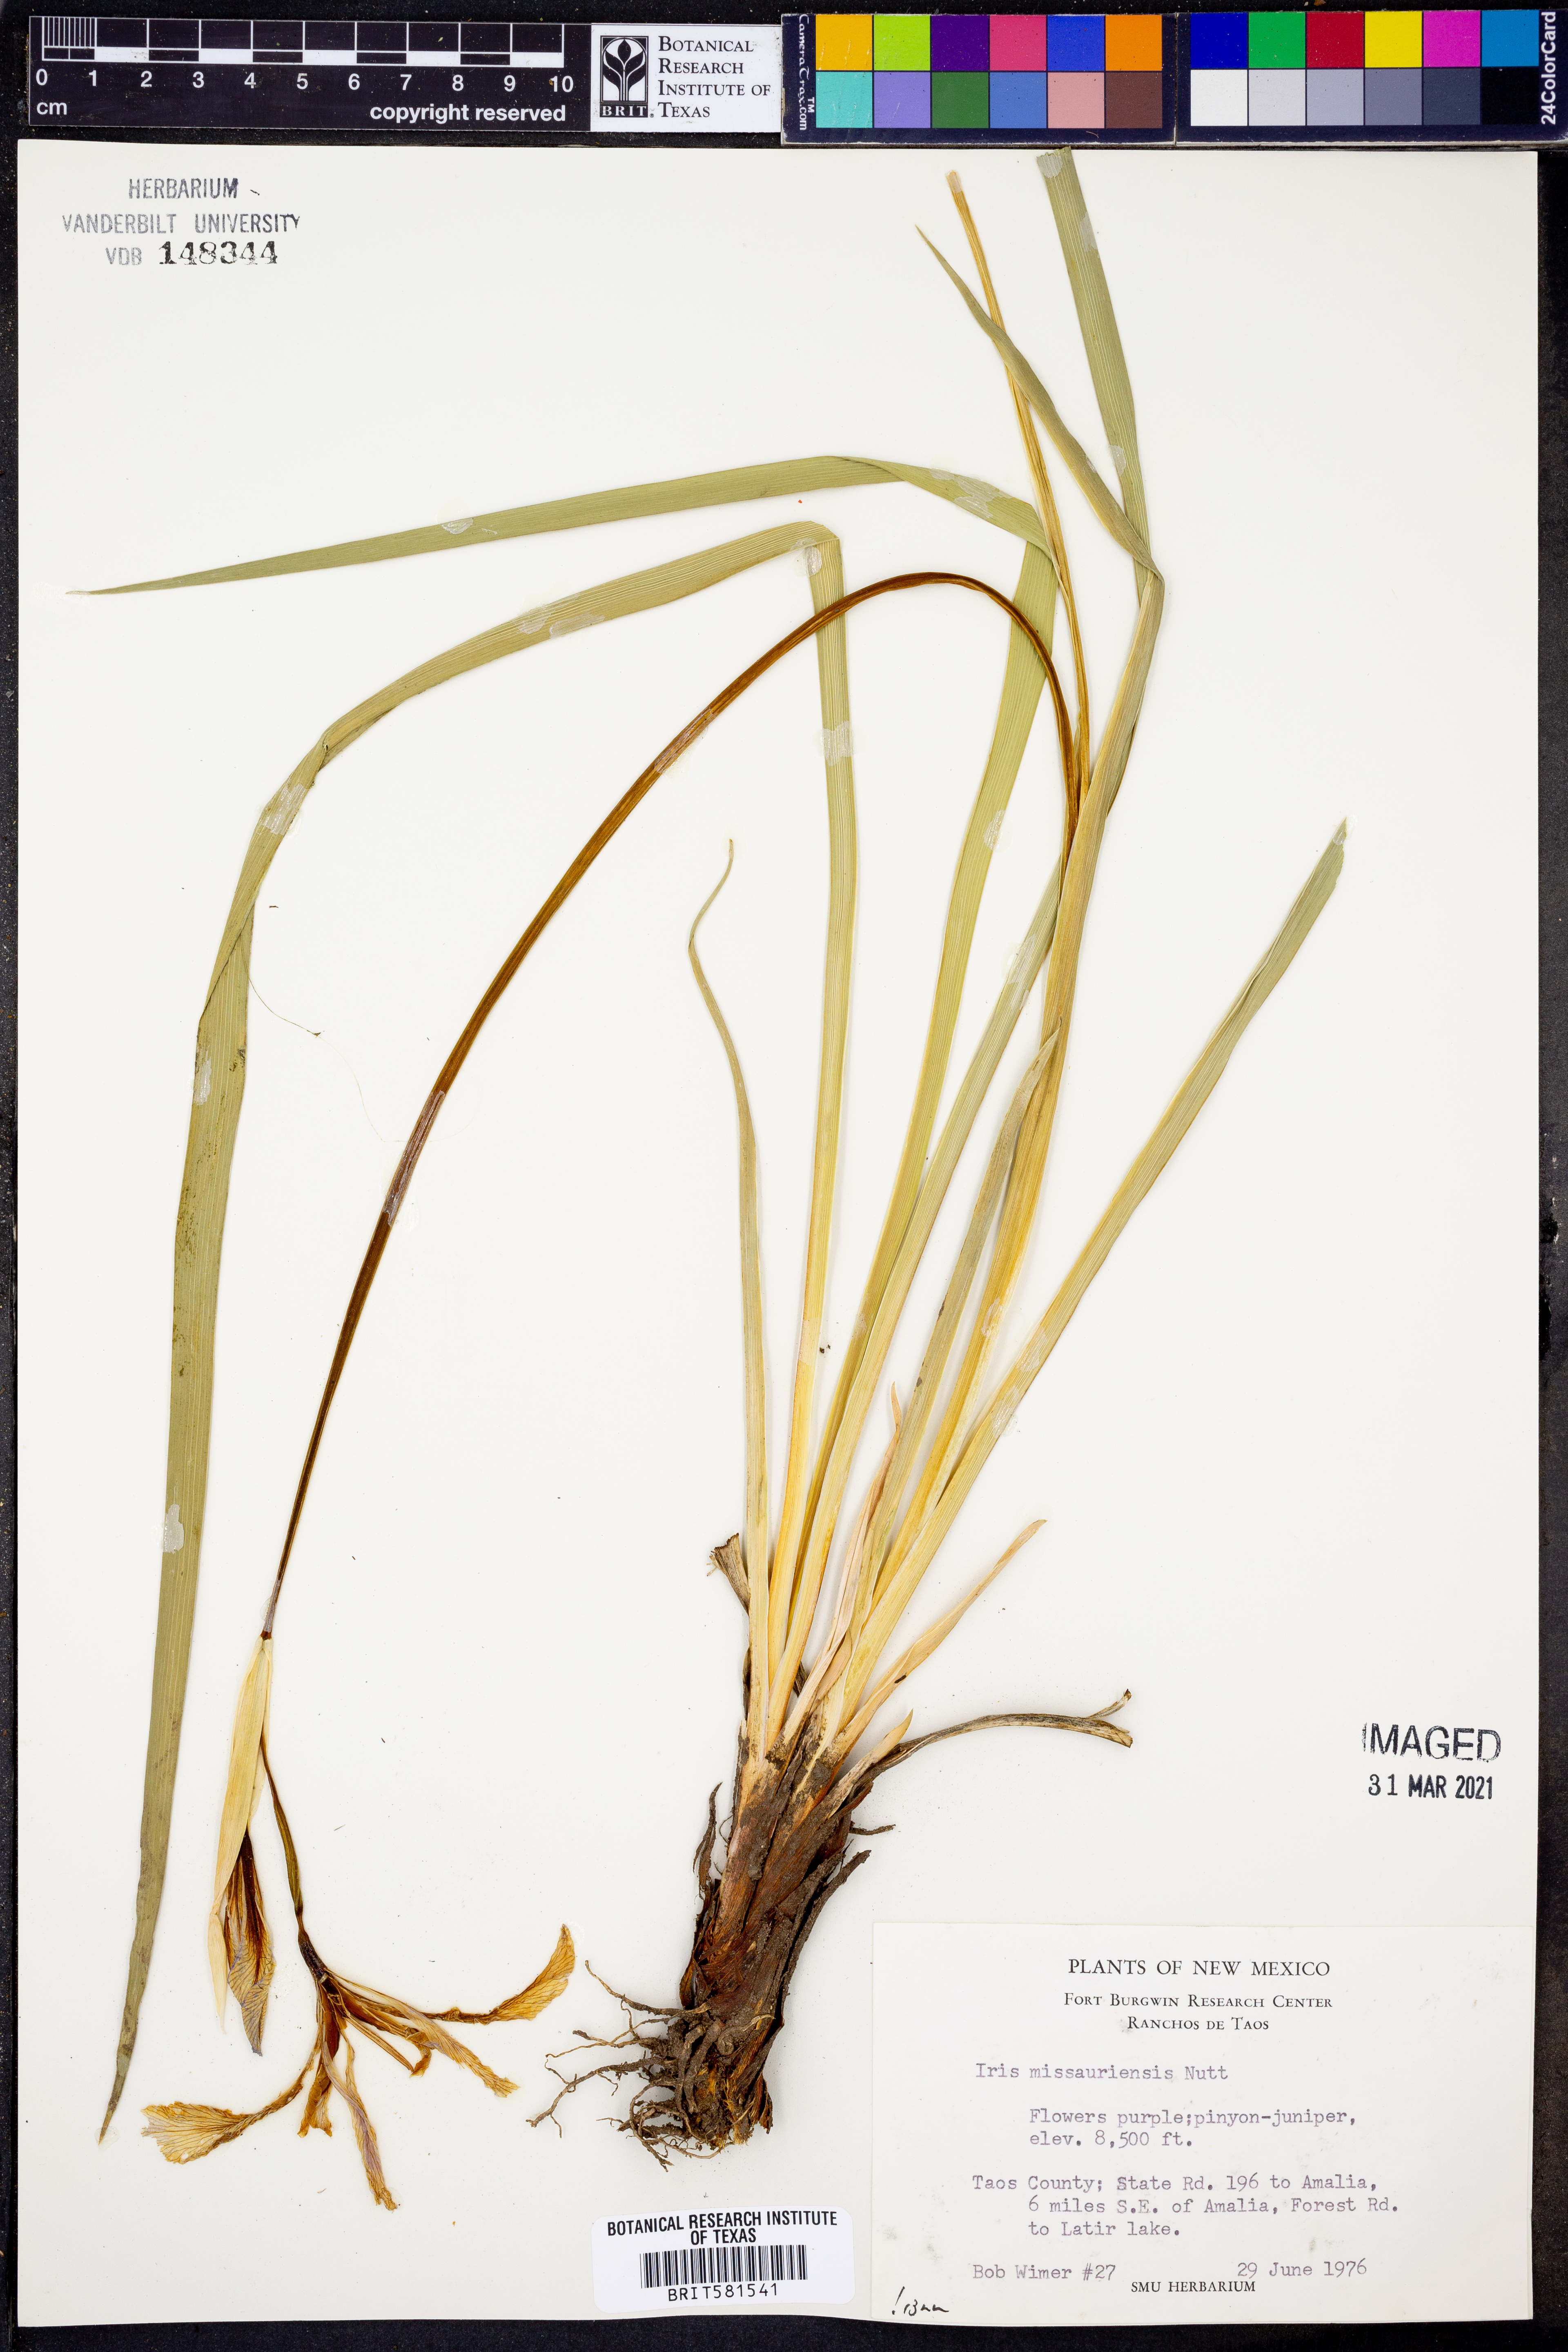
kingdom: Plantae
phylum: Tracheophyta
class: Liliopsida
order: Asparagales
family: Iridaceae
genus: Iris
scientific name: Iris missouriensis
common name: Rocky mountain iris
